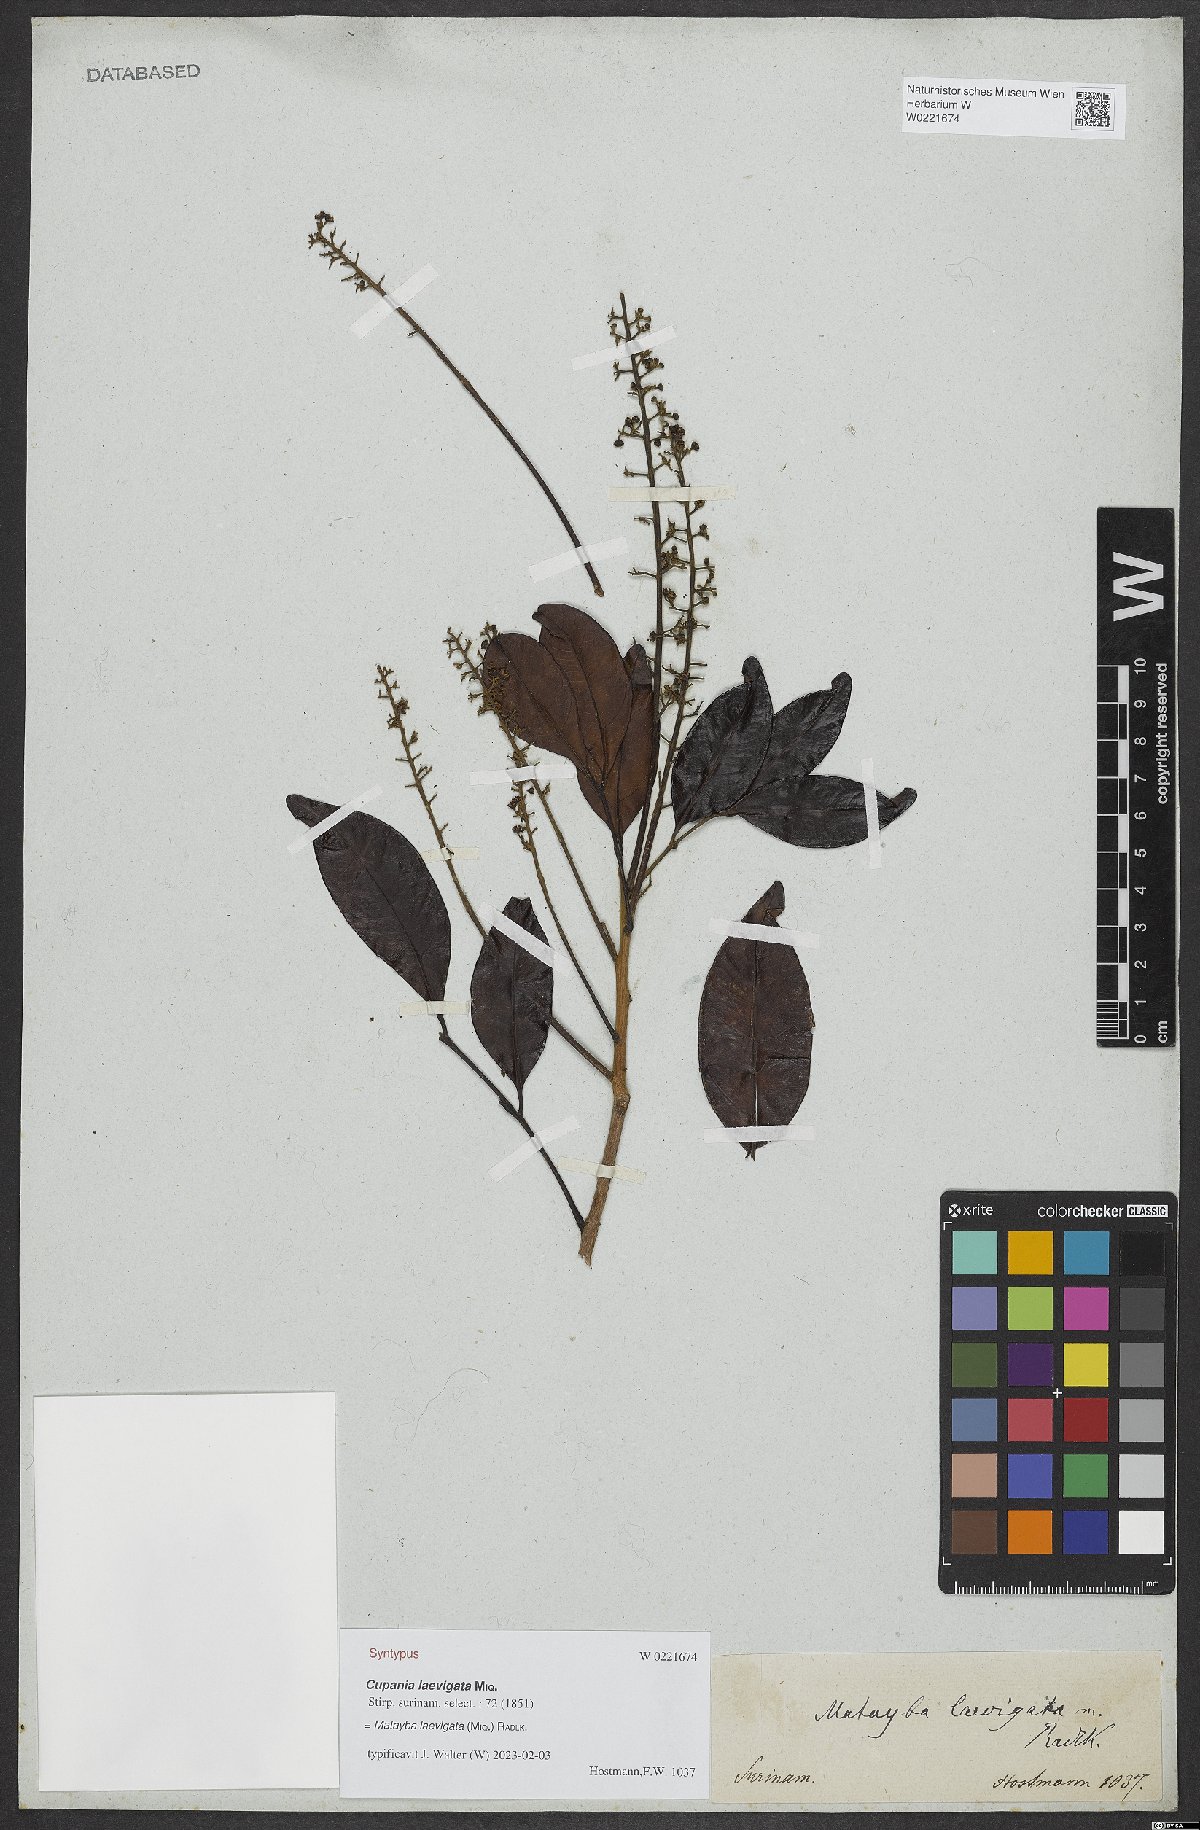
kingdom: Plantae
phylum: Tracheophyta
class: Magnoliopsida
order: Sapindales
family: Sapindaceae
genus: Matayba
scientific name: Matayba
